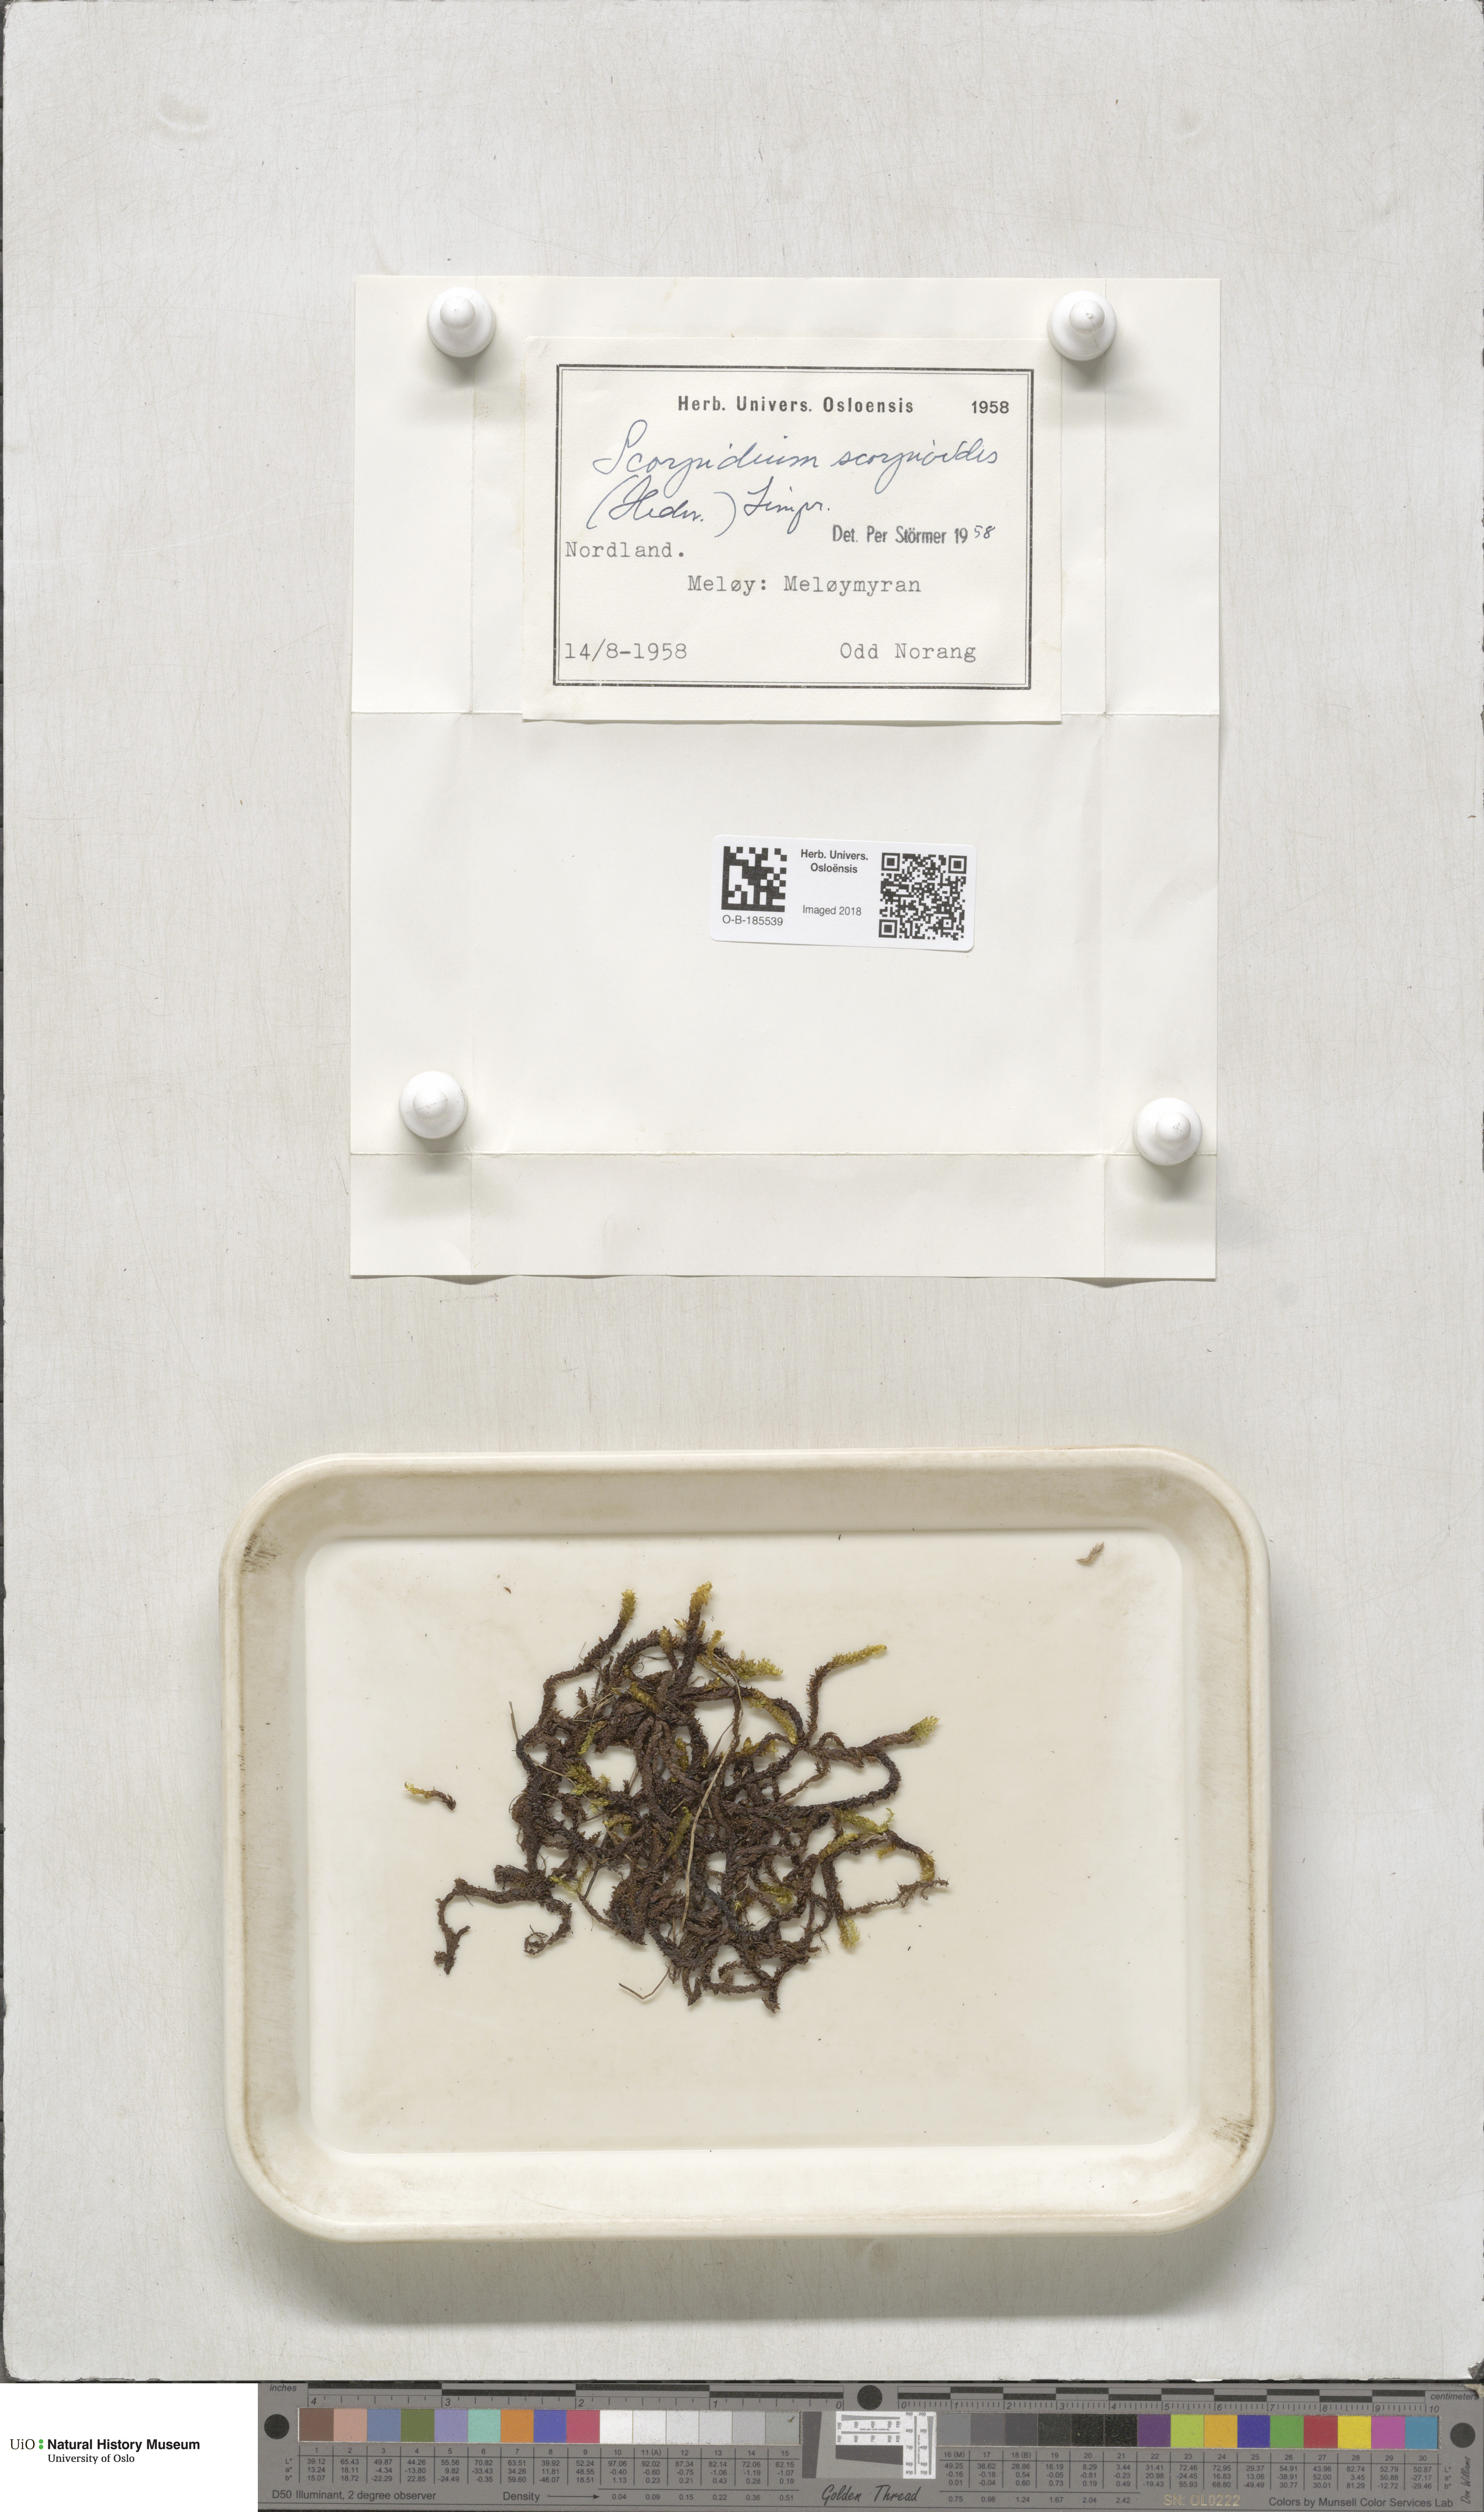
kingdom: Plantae
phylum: Bryophyta
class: Bryopsida
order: Hypnales
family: Scorpidiaceae
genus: Scorpidium
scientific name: Scorpidium scorpioides
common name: Hooked scorpion moss
